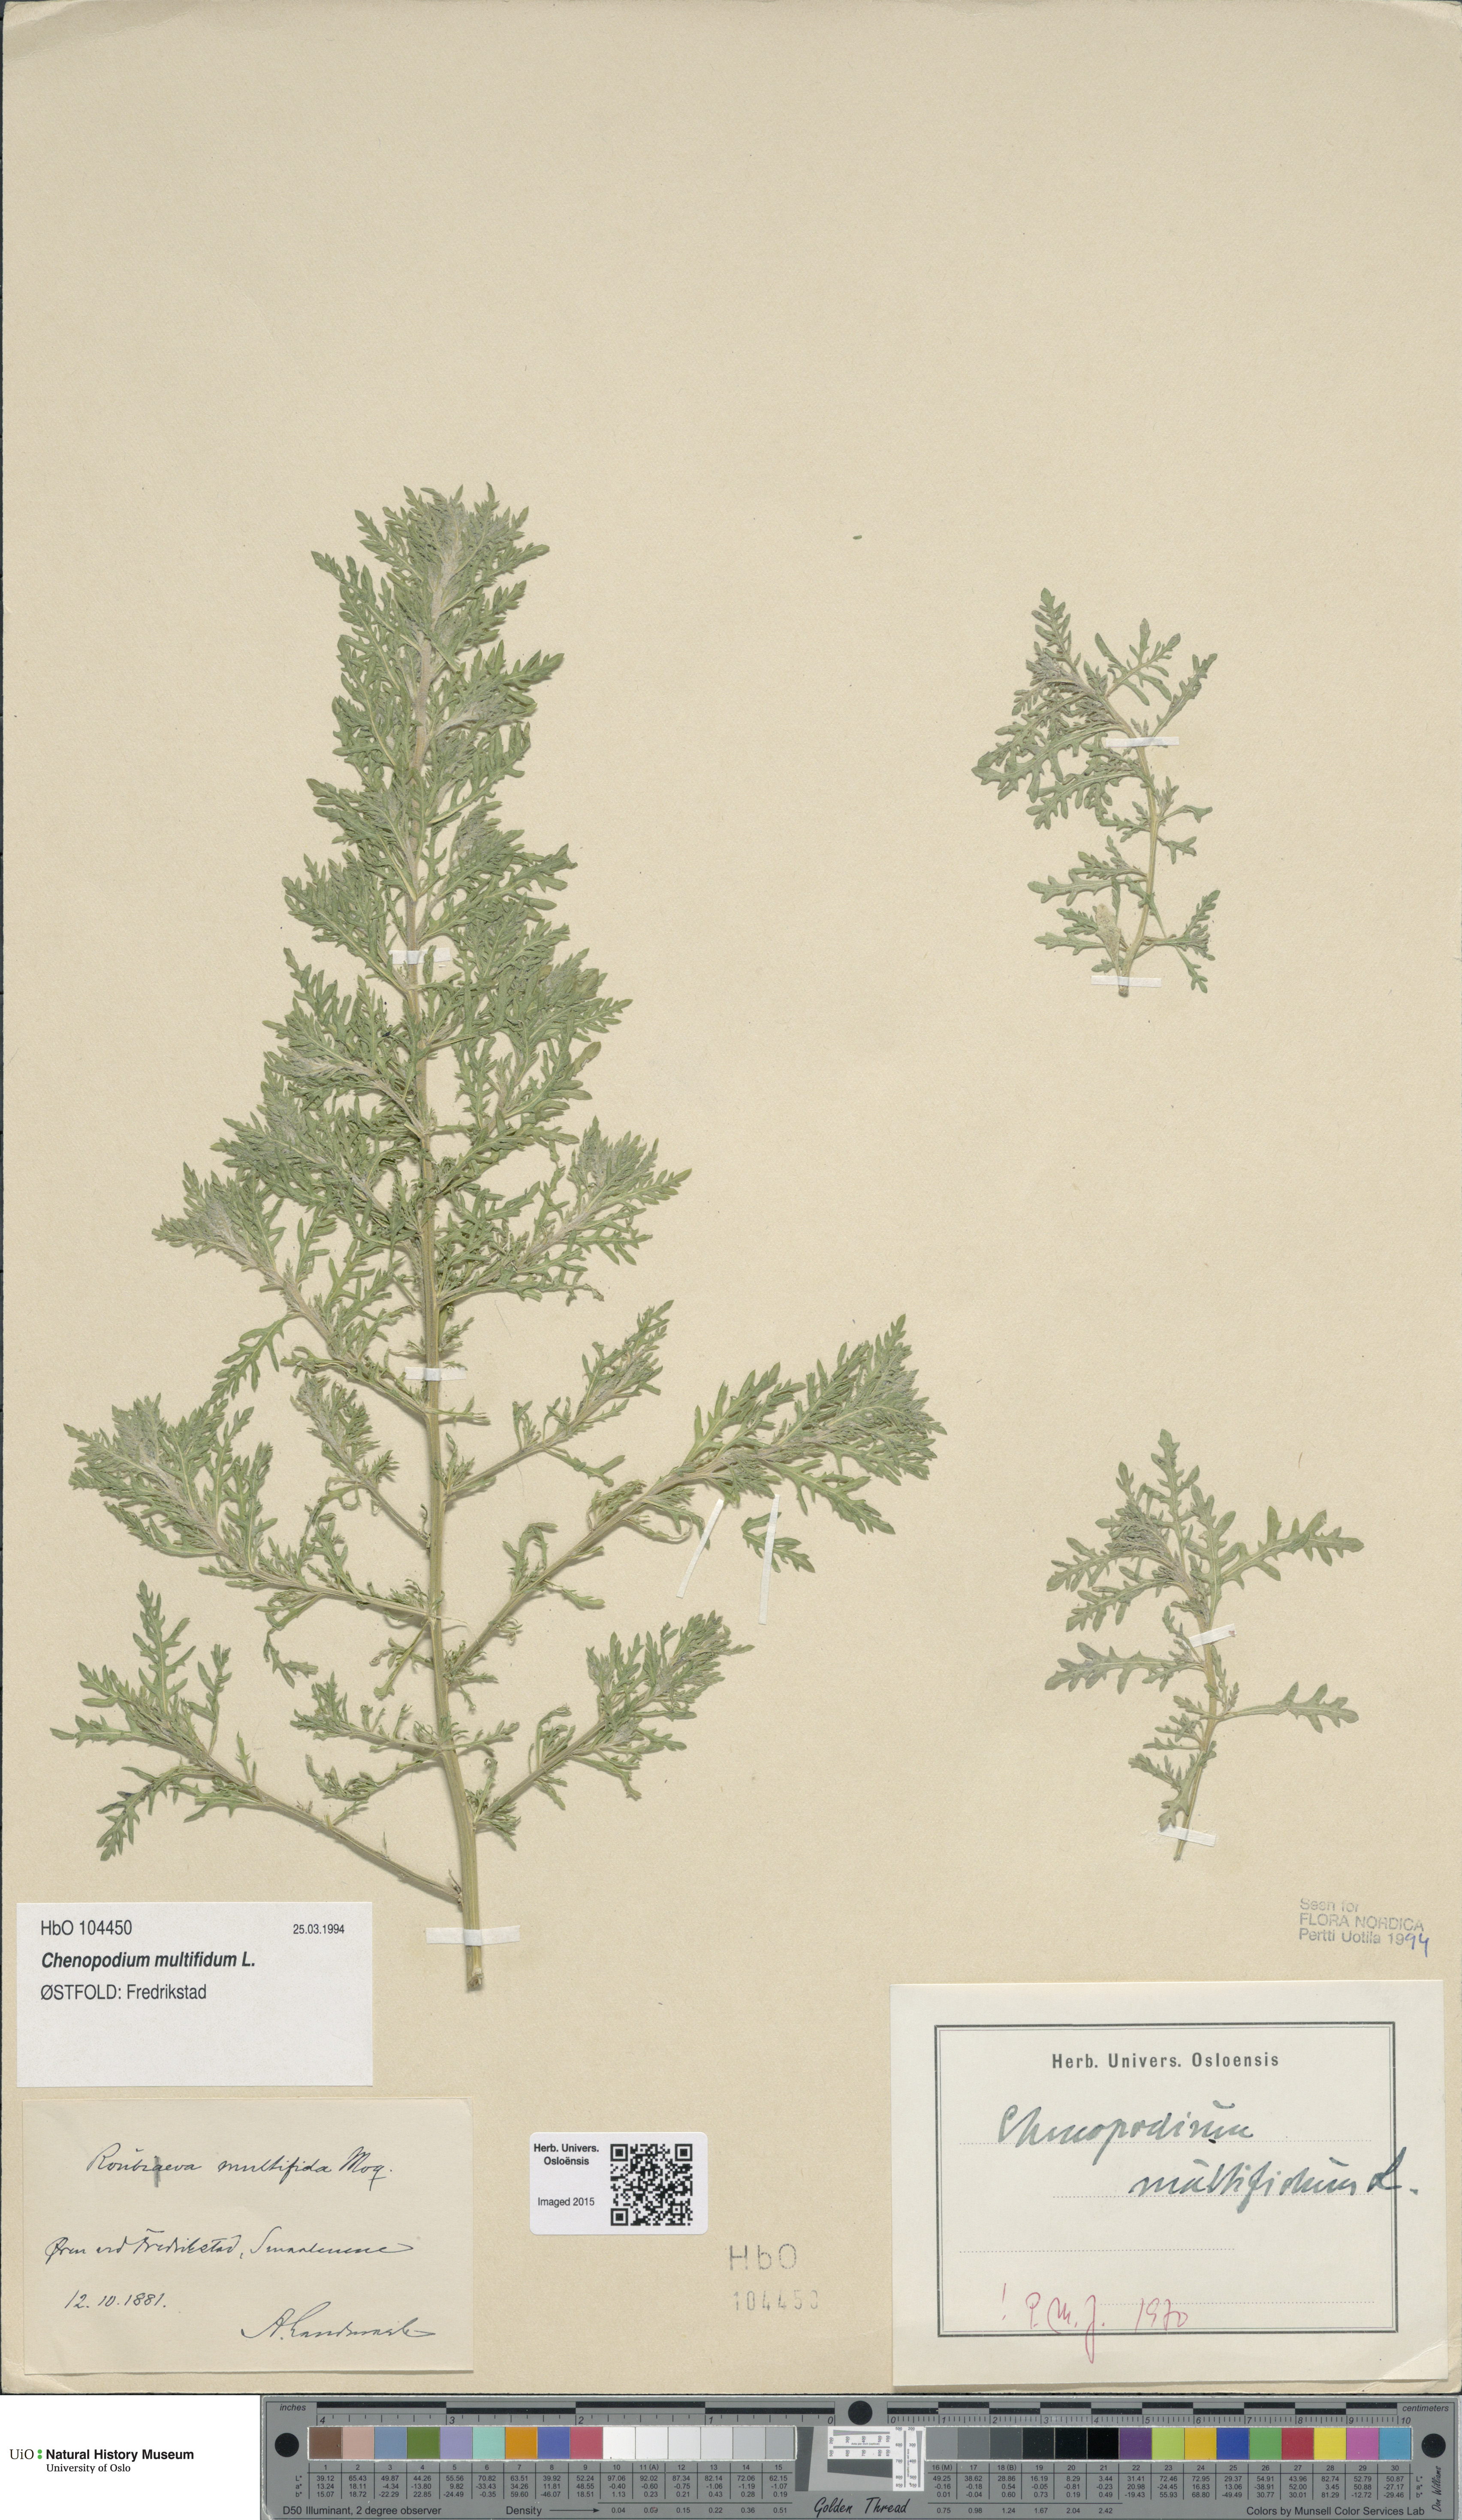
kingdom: Plantae
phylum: Tracheophyta
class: Magnoliopsida
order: Caryophyllales
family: Amaranthaceae
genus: Dysphania
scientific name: Dysphania multifida
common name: Cutleaf goosefoot
